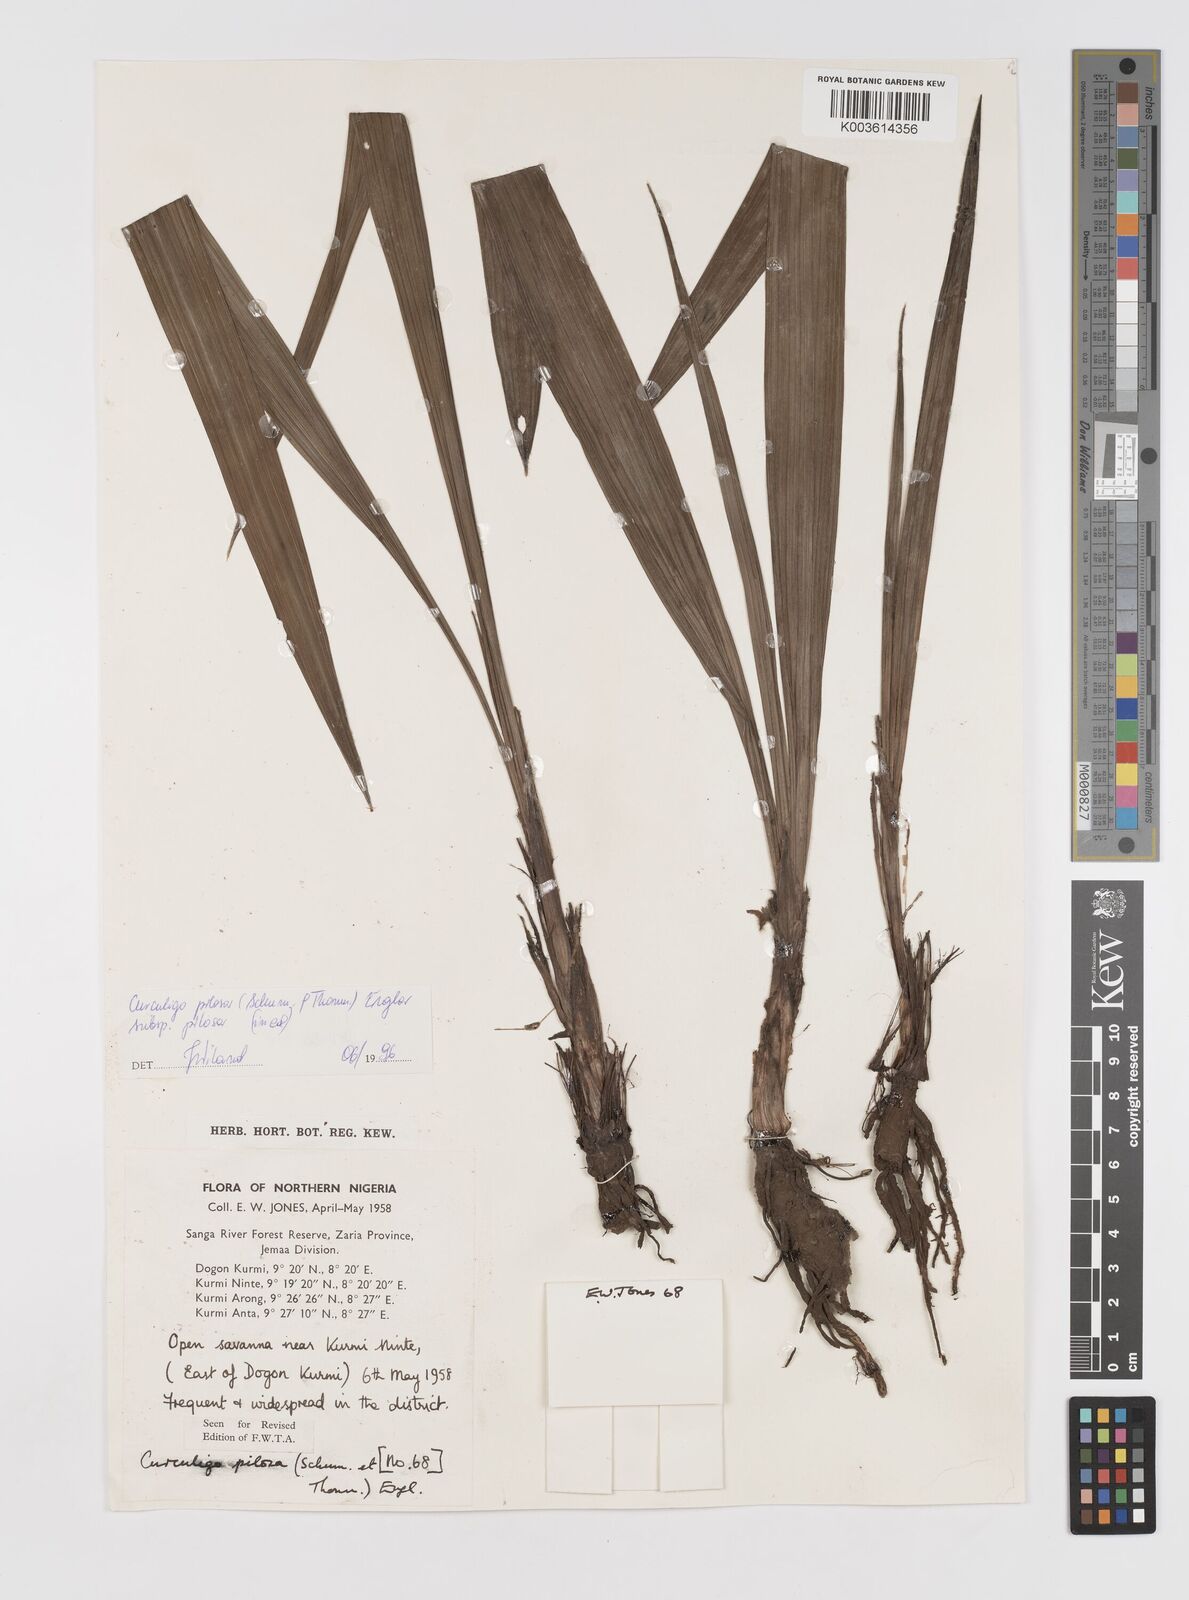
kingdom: Plantae
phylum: Tracheophyta
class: Liliopsida
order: Asparagales
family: Hypoxidaceae
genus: Curculigo
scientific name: Curculigo pilosa
